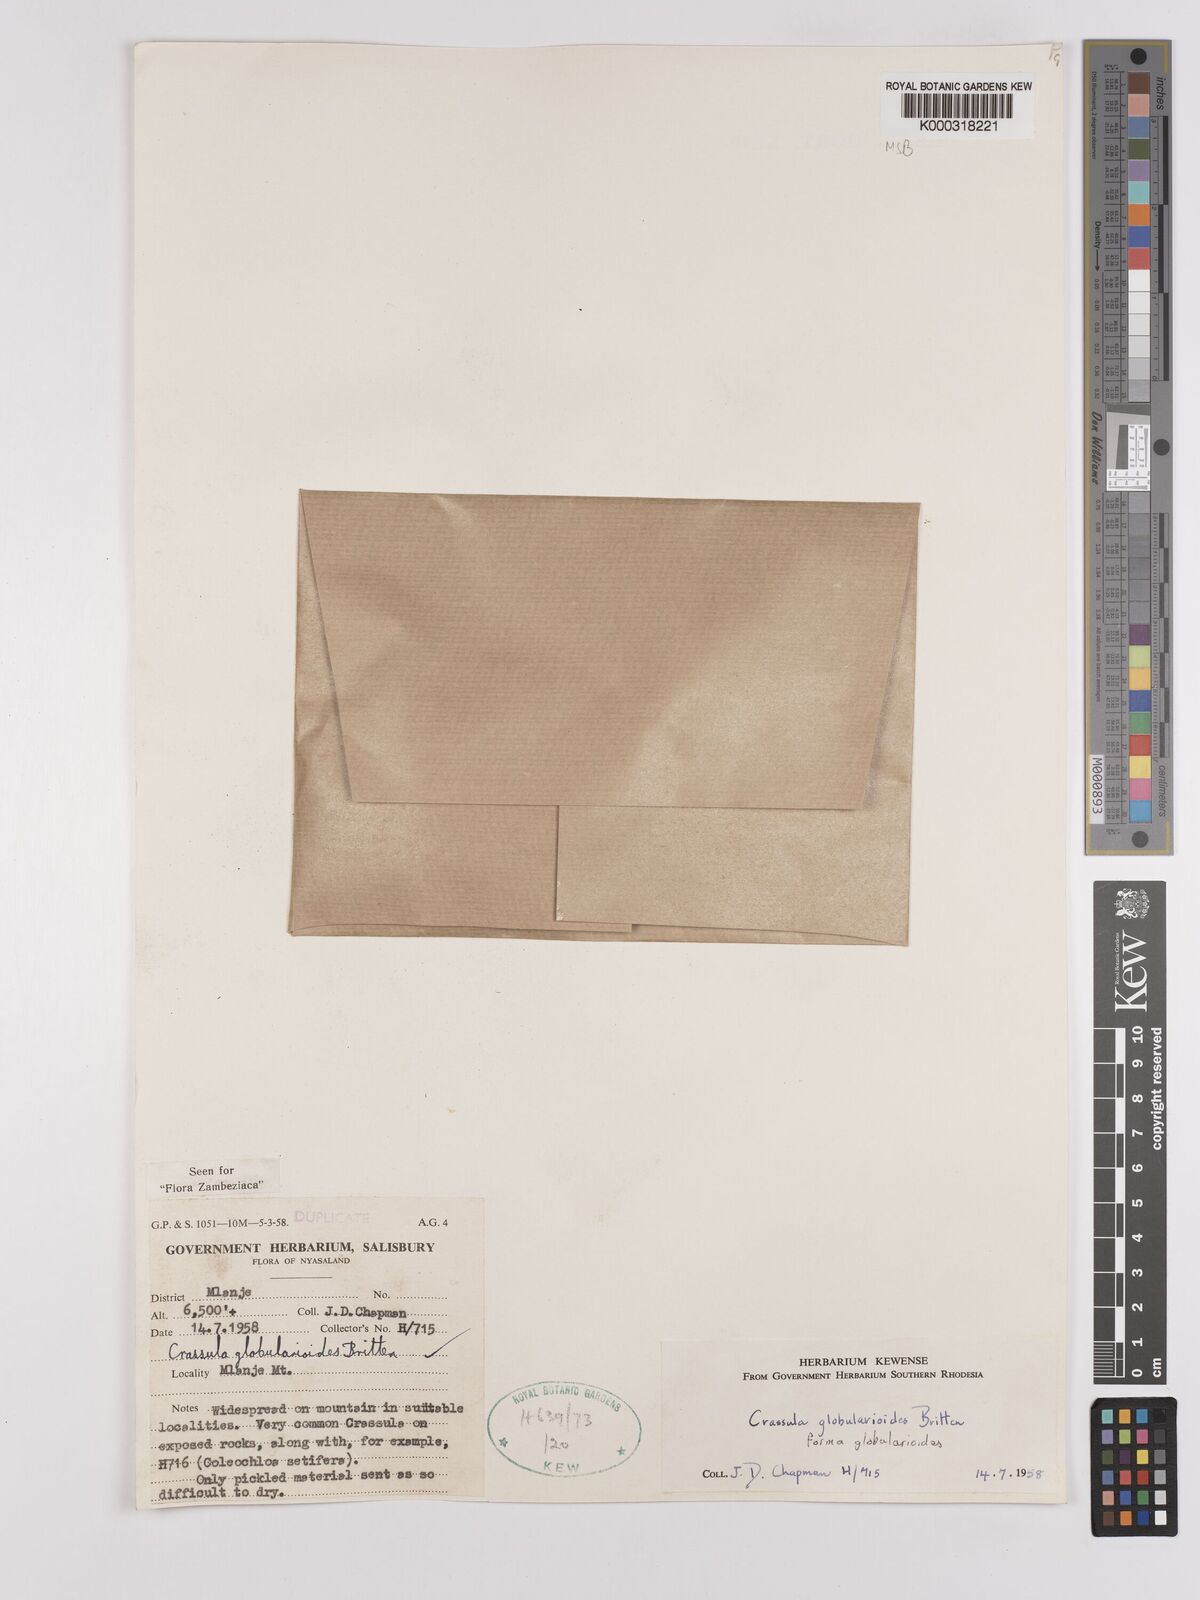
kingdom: Plantae
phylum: Tracheophyta
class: Magnoliopsida
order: Saxifragales
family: Crassulaceae
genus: Crassula
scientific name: Crassula globularioides
